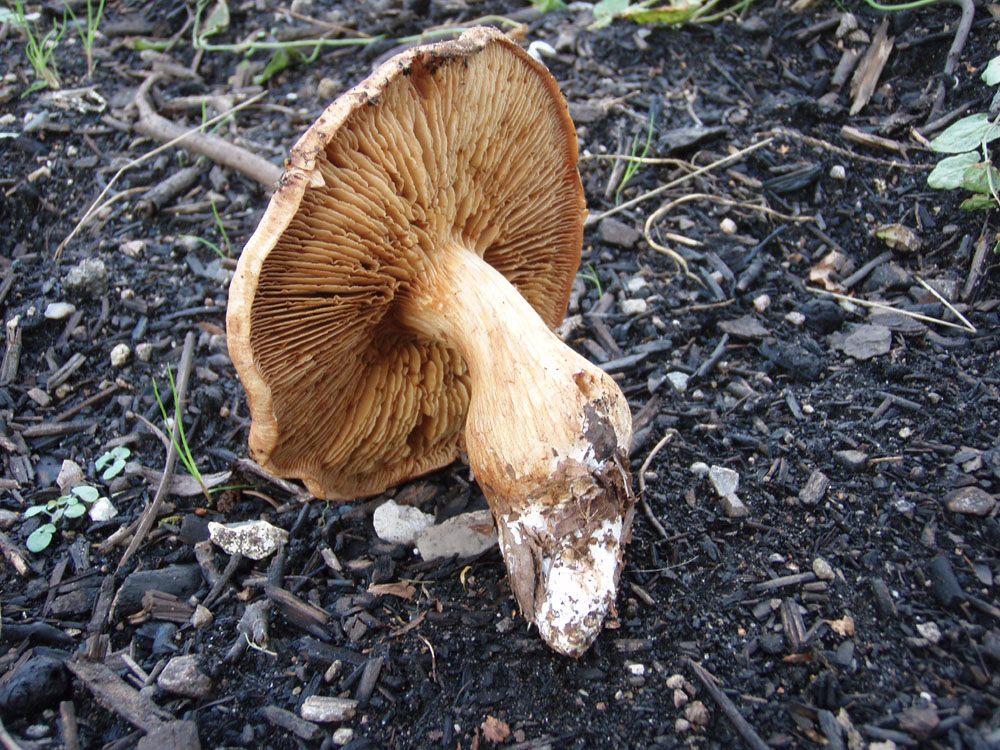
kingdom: Fungi
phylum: Basidiomycota
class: Agaricomycetes
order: Agaricales
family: Cortinariaceae
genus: Thaxterogaster
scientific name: Thaxterogaster vespertinus
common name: blegfodet slørhat
